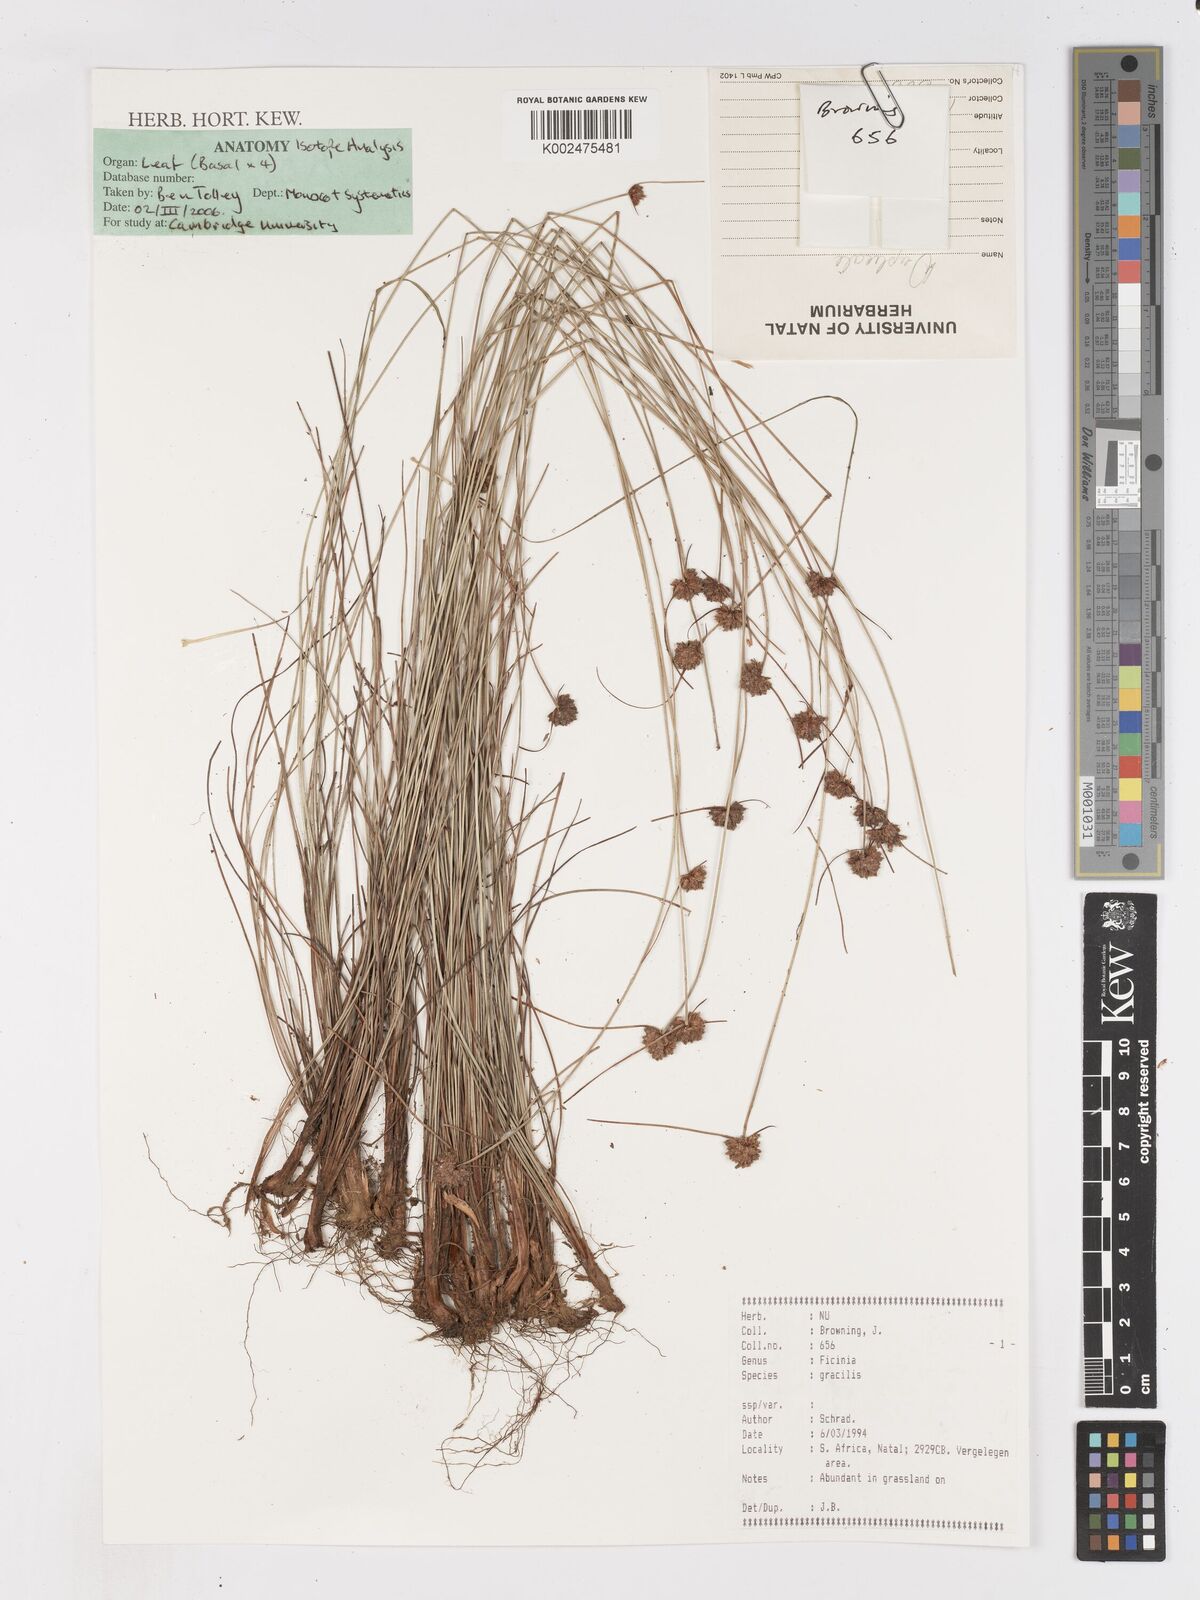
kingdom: Plantae
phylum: Tracheophyta
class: Liliopsida
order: Poales
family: Cyperaceae
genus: Ficinia
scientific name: Ficinia gracilis
